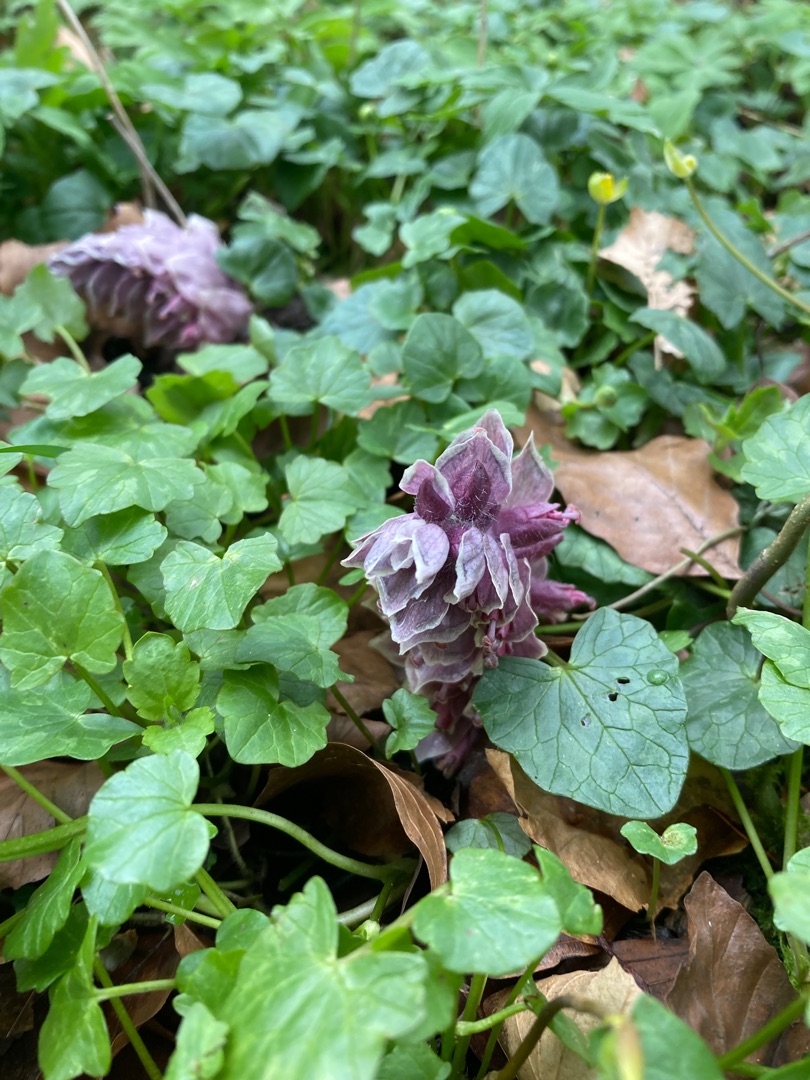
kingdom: Plantae
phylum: Tracheophyta
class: Magnoliopsida
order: Lamiales
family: Orobanchaceae
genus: Lathraea
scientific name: Lathraea squamaria
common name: Skælrod
